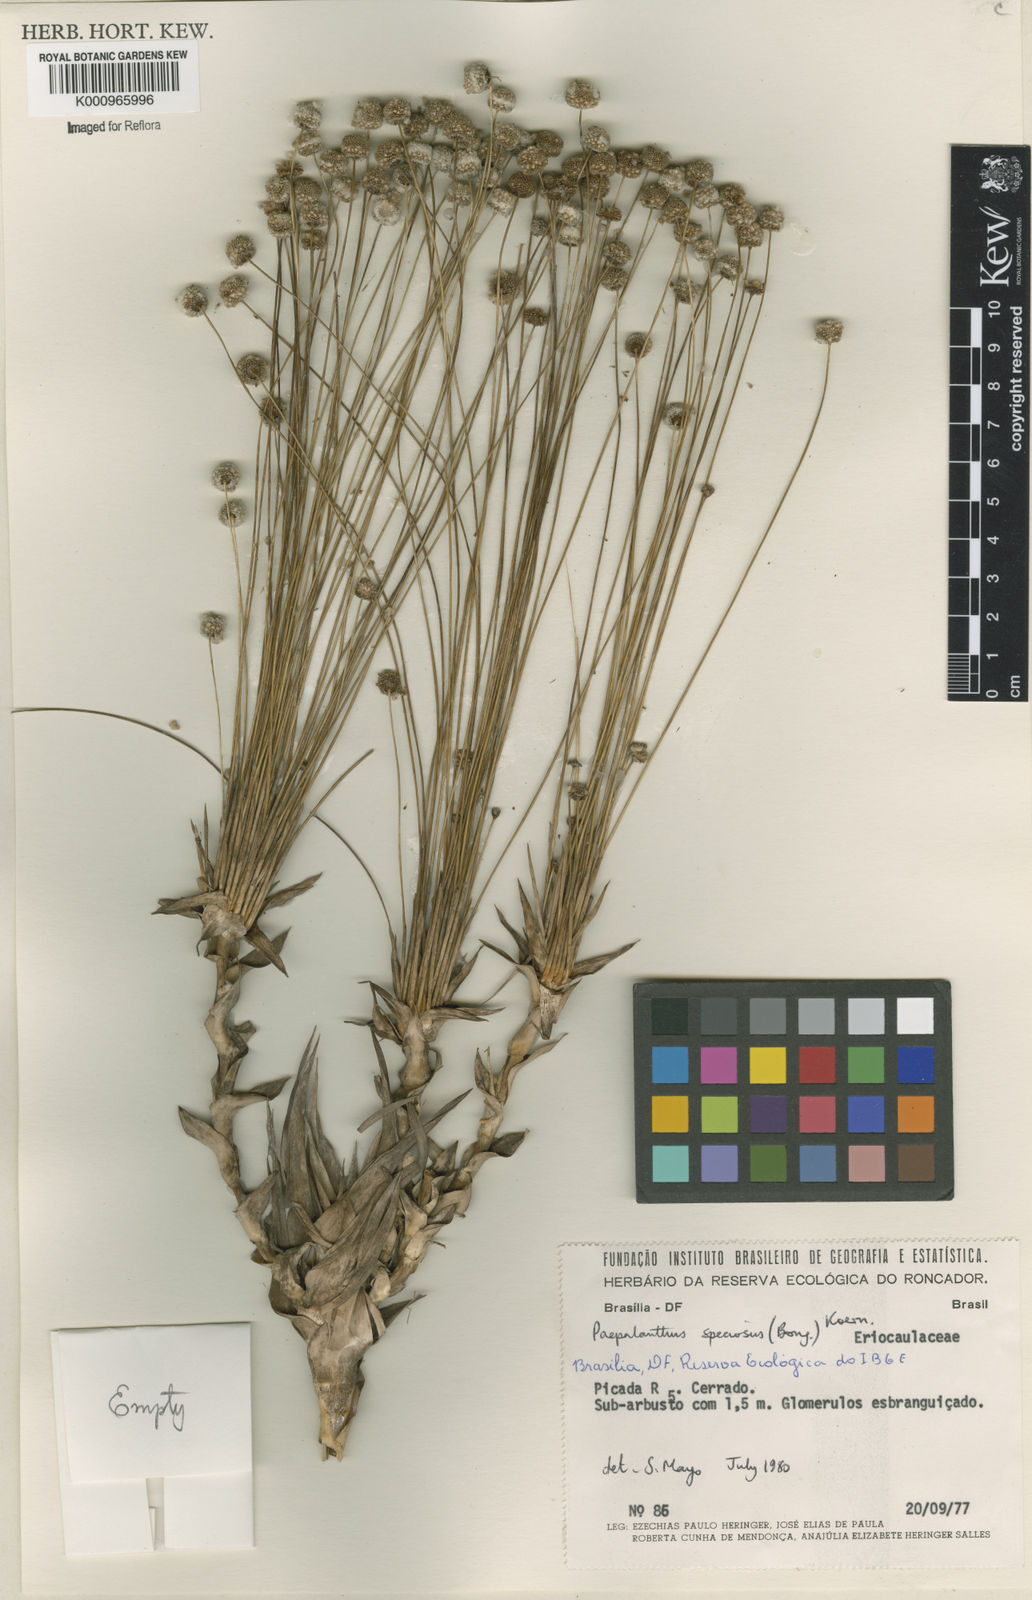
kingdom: Plantae
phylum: Tracheophyta
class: Liliopsida
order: Poales
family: Eriocaulaceae
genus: Paepalanthus
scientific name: Paepalanthus
